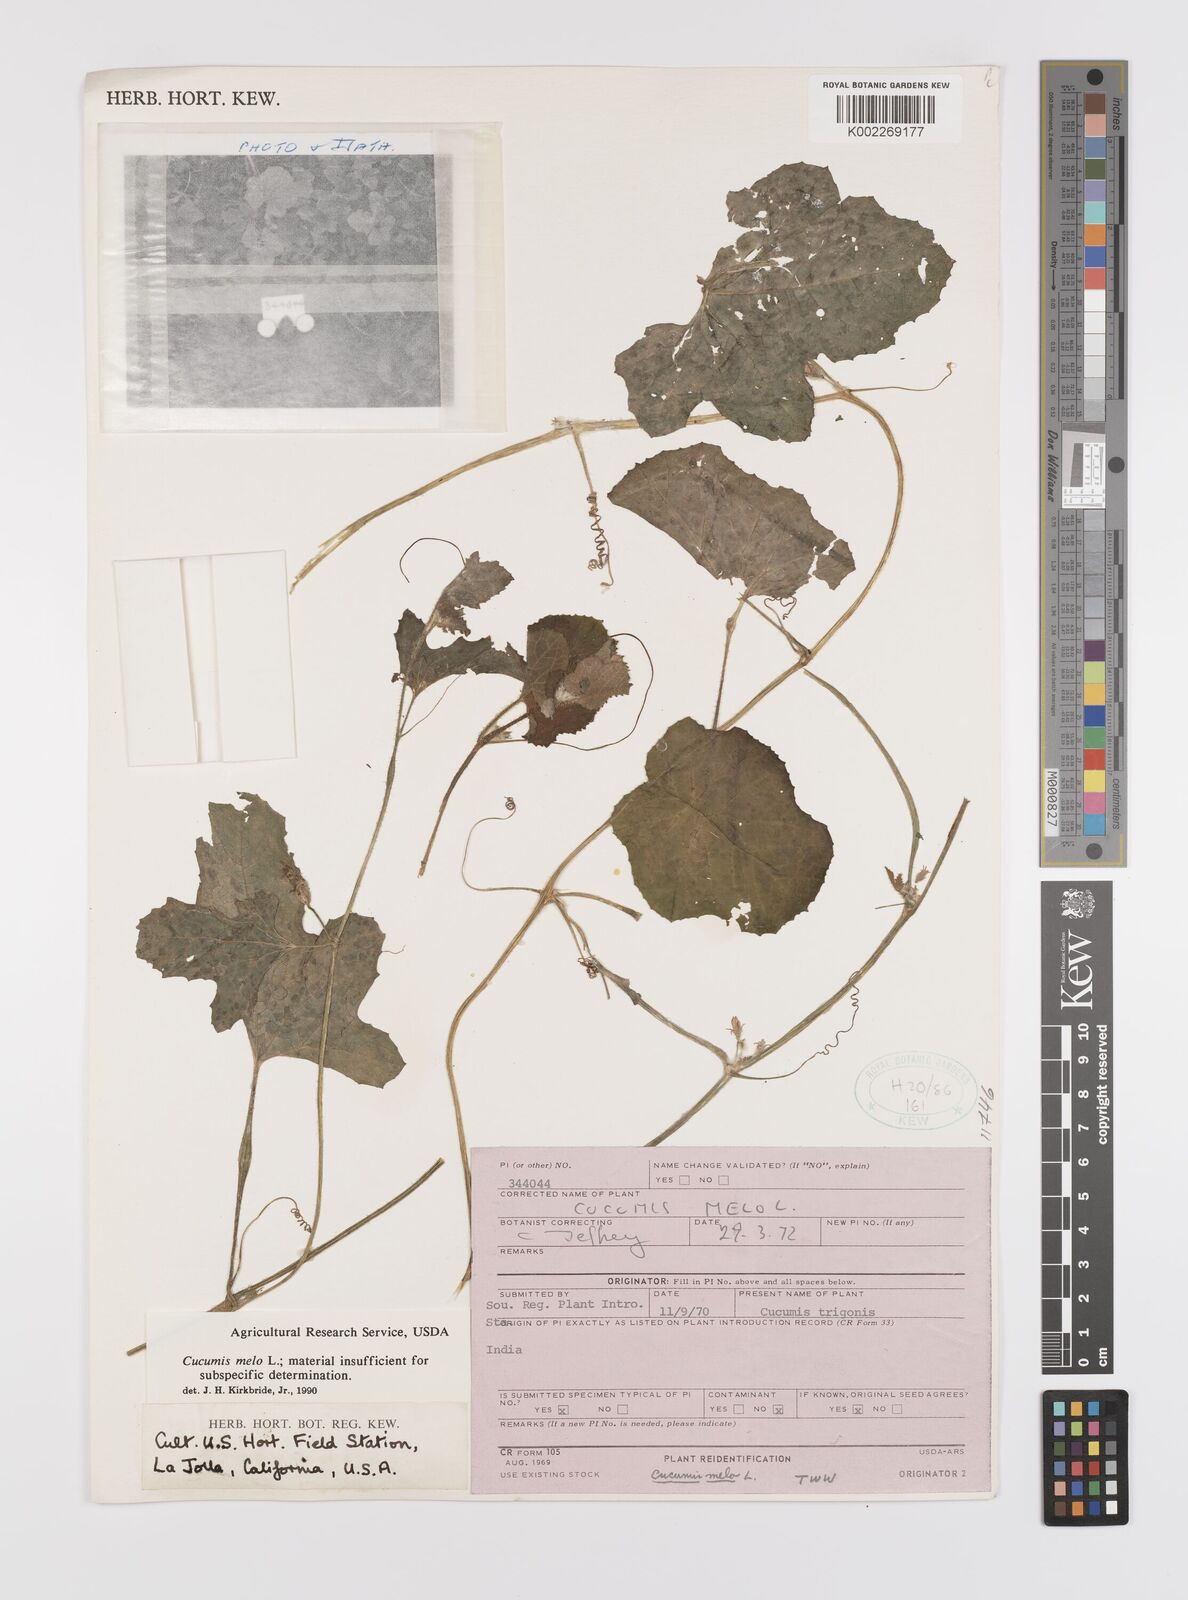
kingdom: Plantae
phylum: Tracheophyta
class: Magnoliopsida
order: Cucurbitales
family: Cucurbitaceae
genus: Cucumis
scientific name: Cucumis melo
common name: Melon
